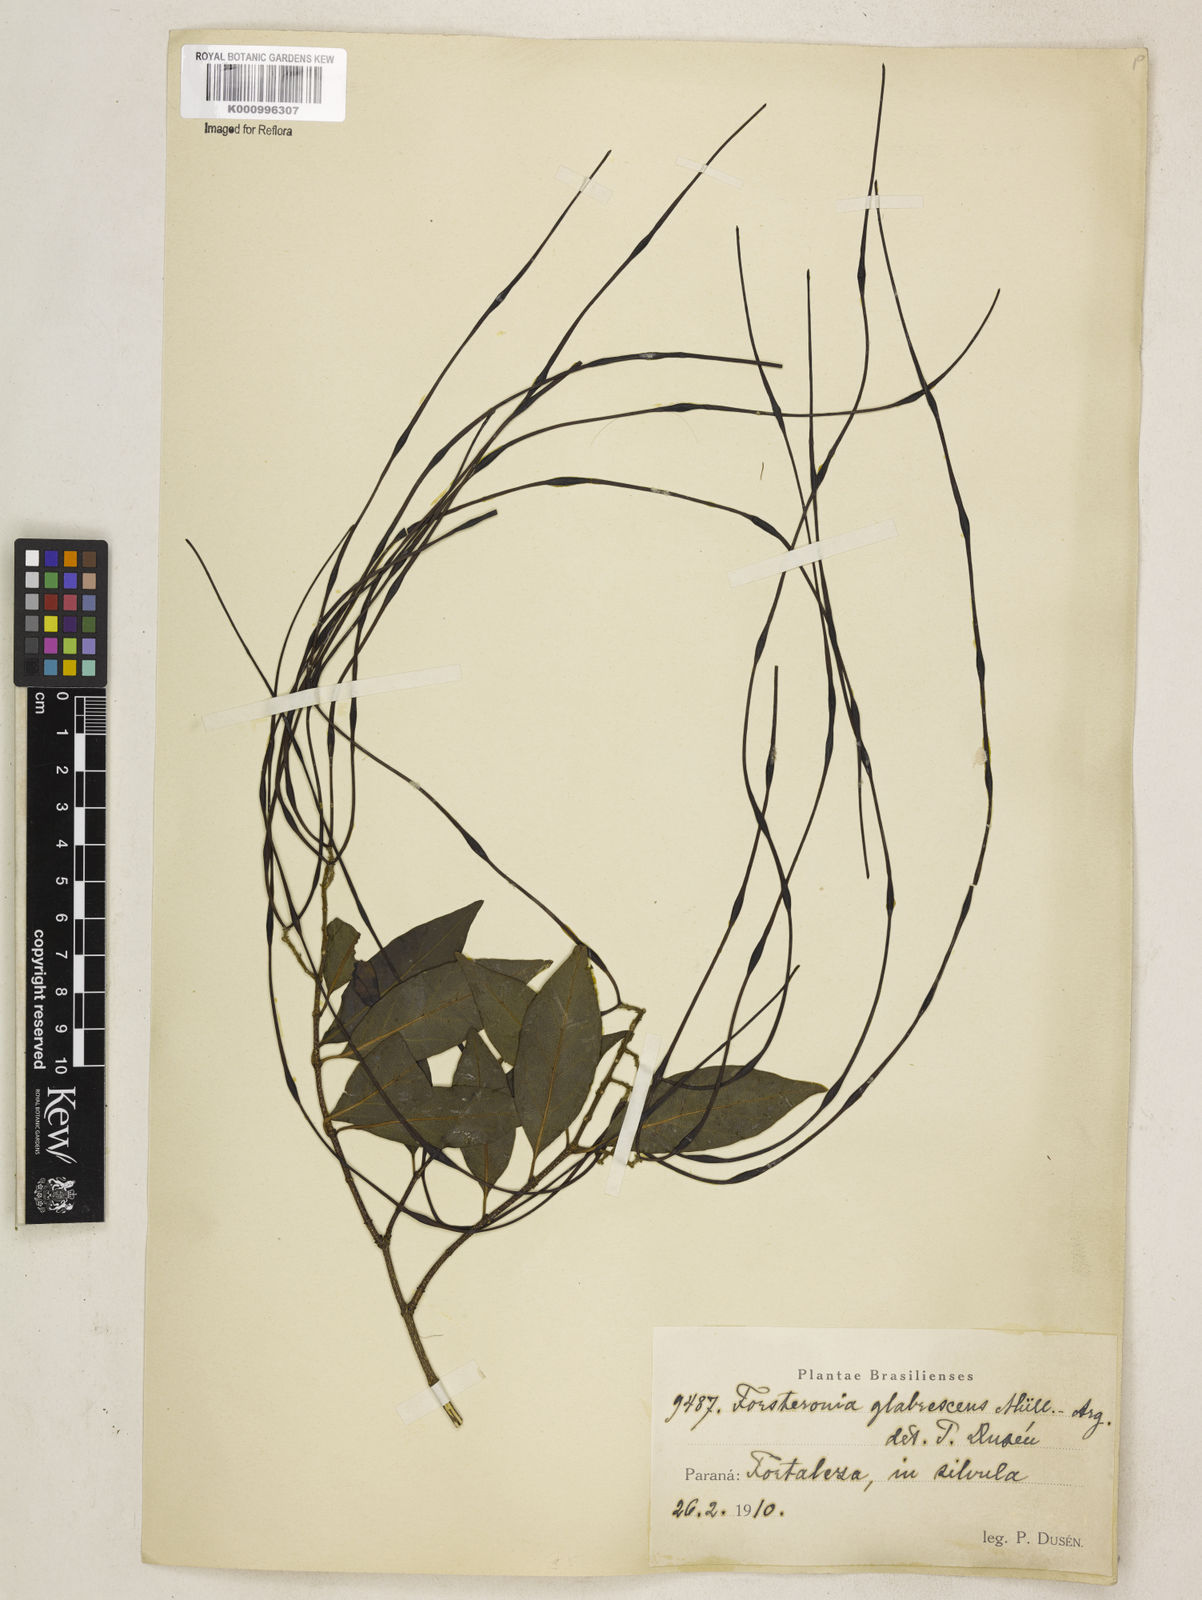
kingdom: Plantae
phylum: Tracheophyta
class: Magnoliopsida
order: Gentianales
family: Apocynaceae
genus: Forsteronia
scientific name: Forsteronia
